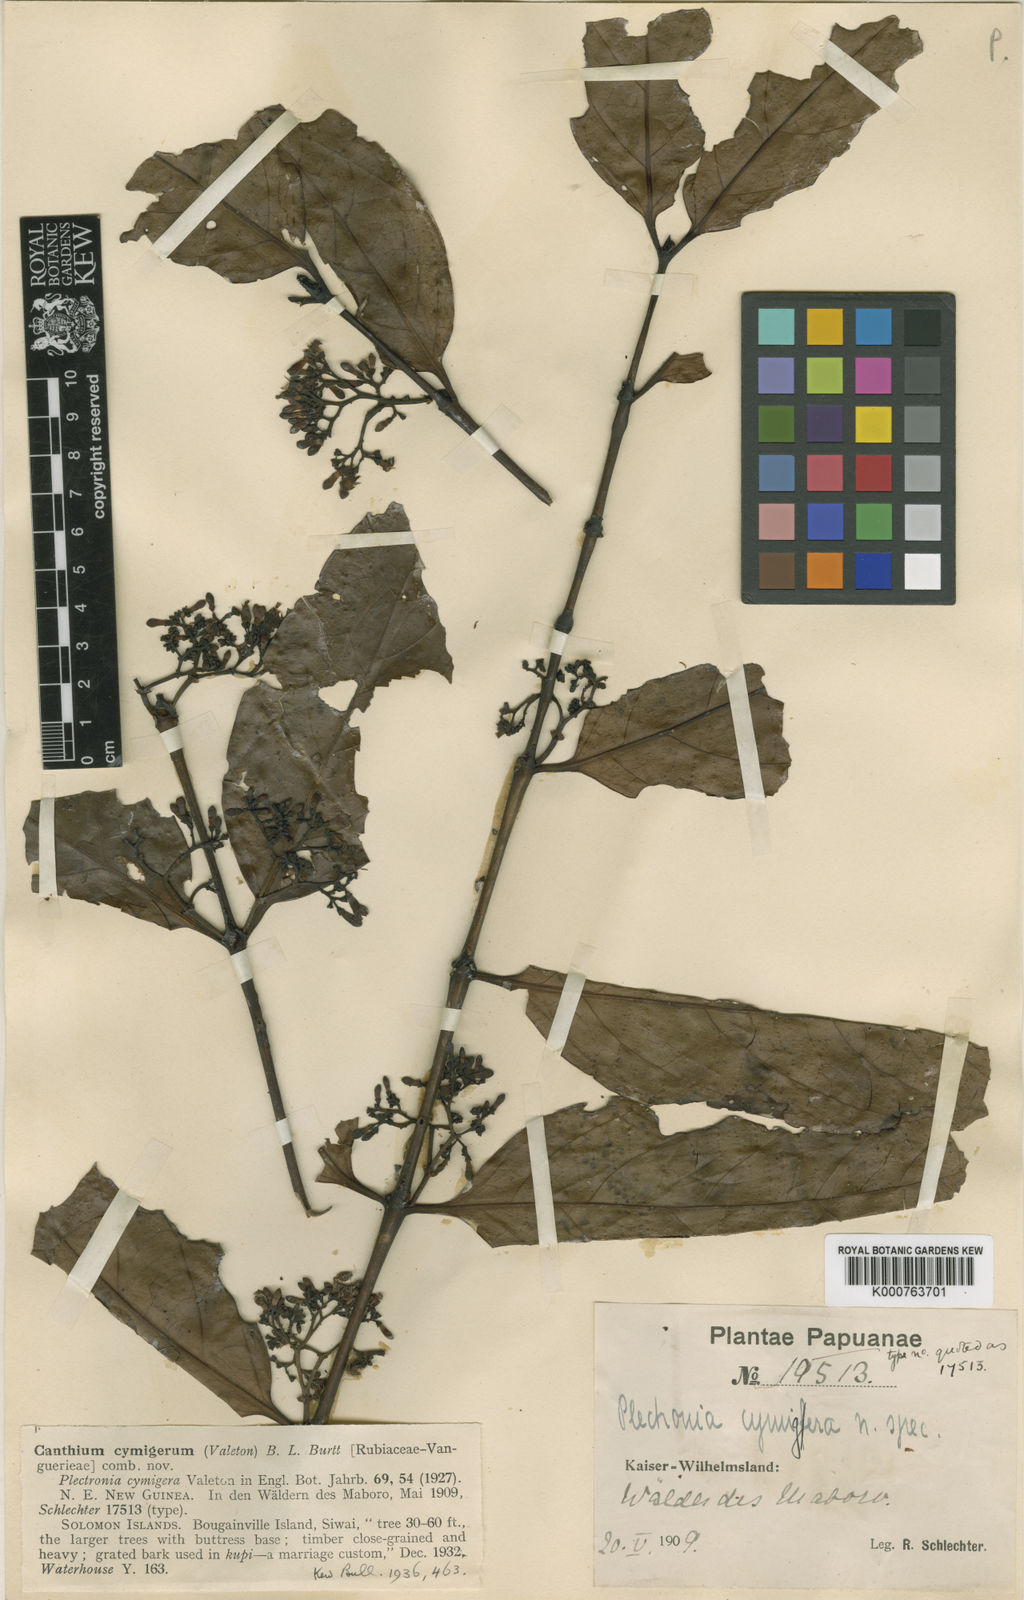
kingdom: Plantae
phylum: Tracheophyta
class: Magnoliopsida
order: Gentianales
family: Rubiaceae
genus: Psydrax
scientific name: Psydrax cymiger
